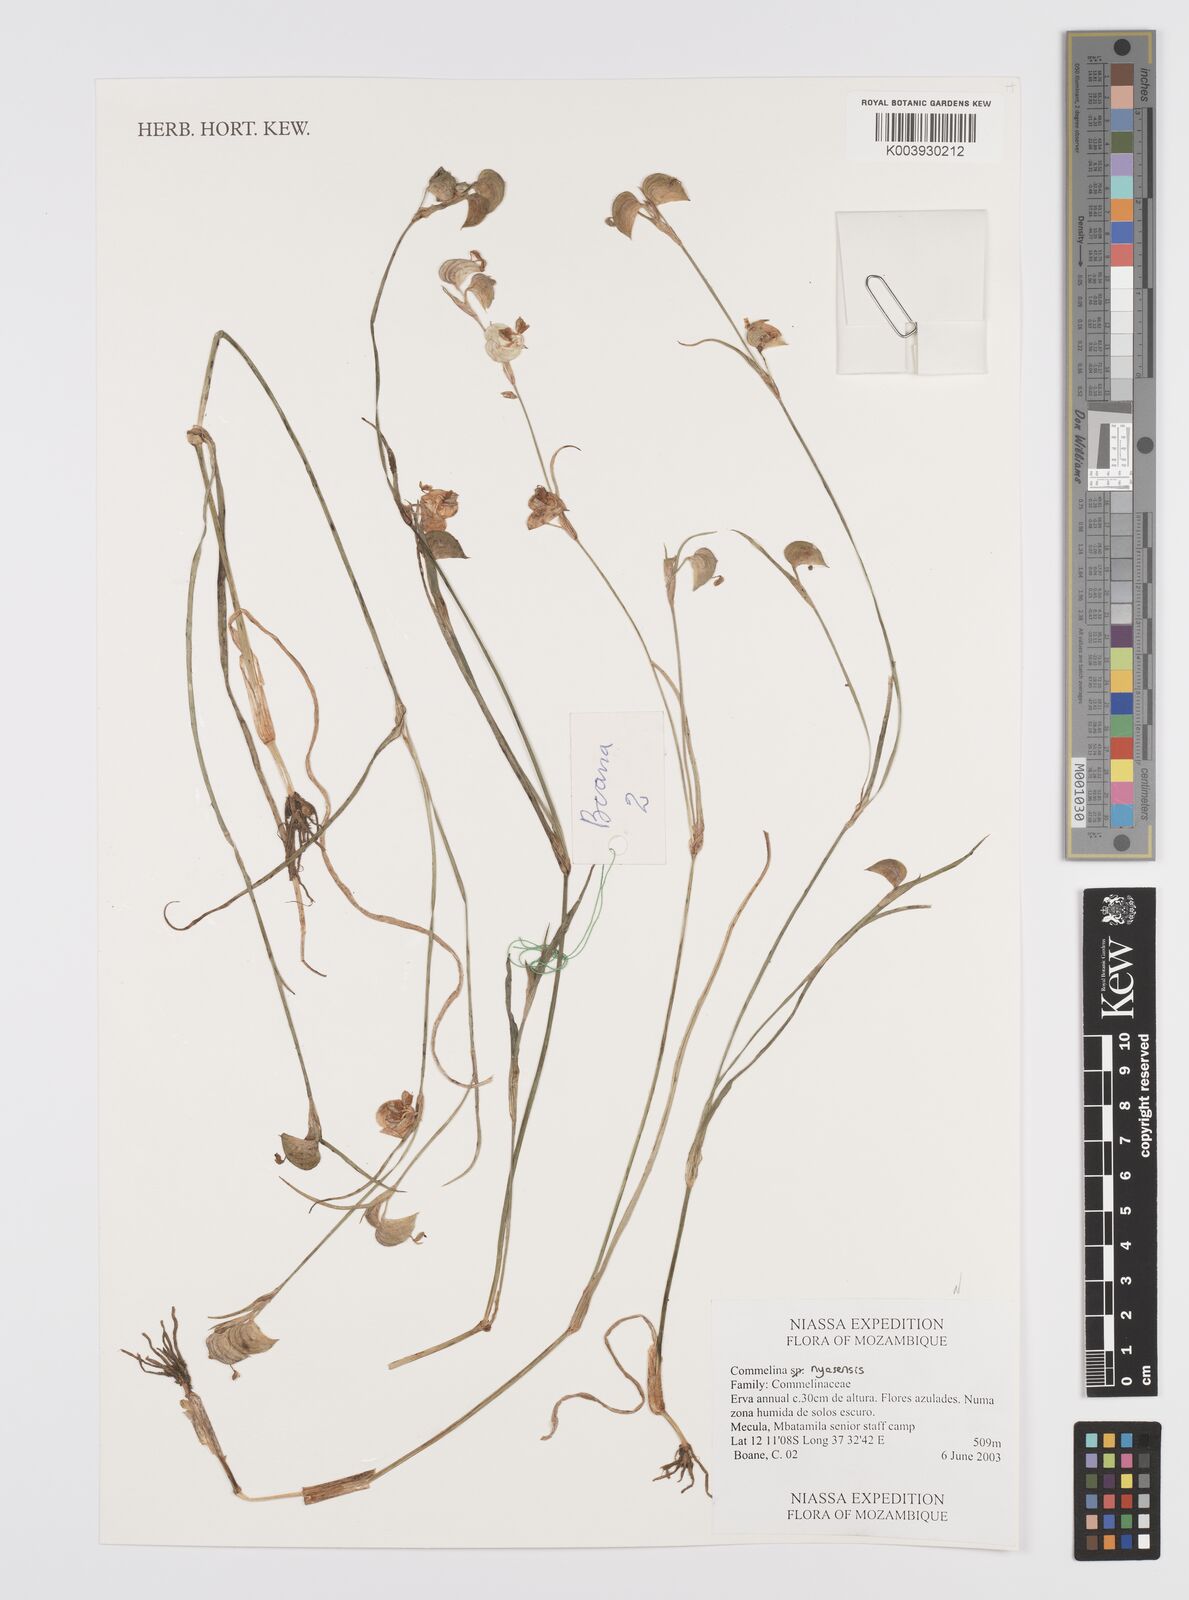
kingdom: Plantae
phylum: Tracheophyta
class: Liliopsida
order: Commelinales
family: Commelinaceae
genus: Commelina
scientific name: Commelina nyasensis
